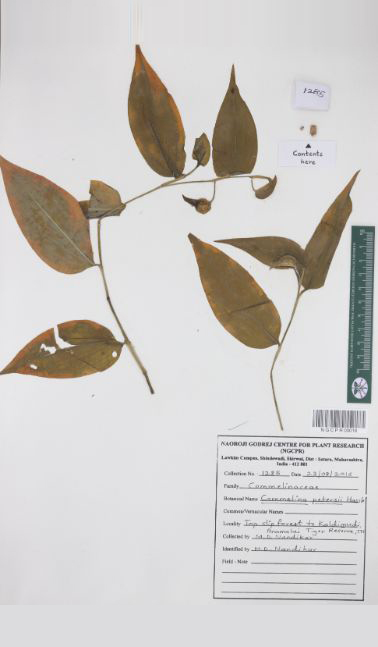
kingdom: Plantae
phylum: Tracheophyta
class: Liliopsida
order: Commelinales
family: Commelinaceae
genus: Commelina
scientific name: Commelina petersii
